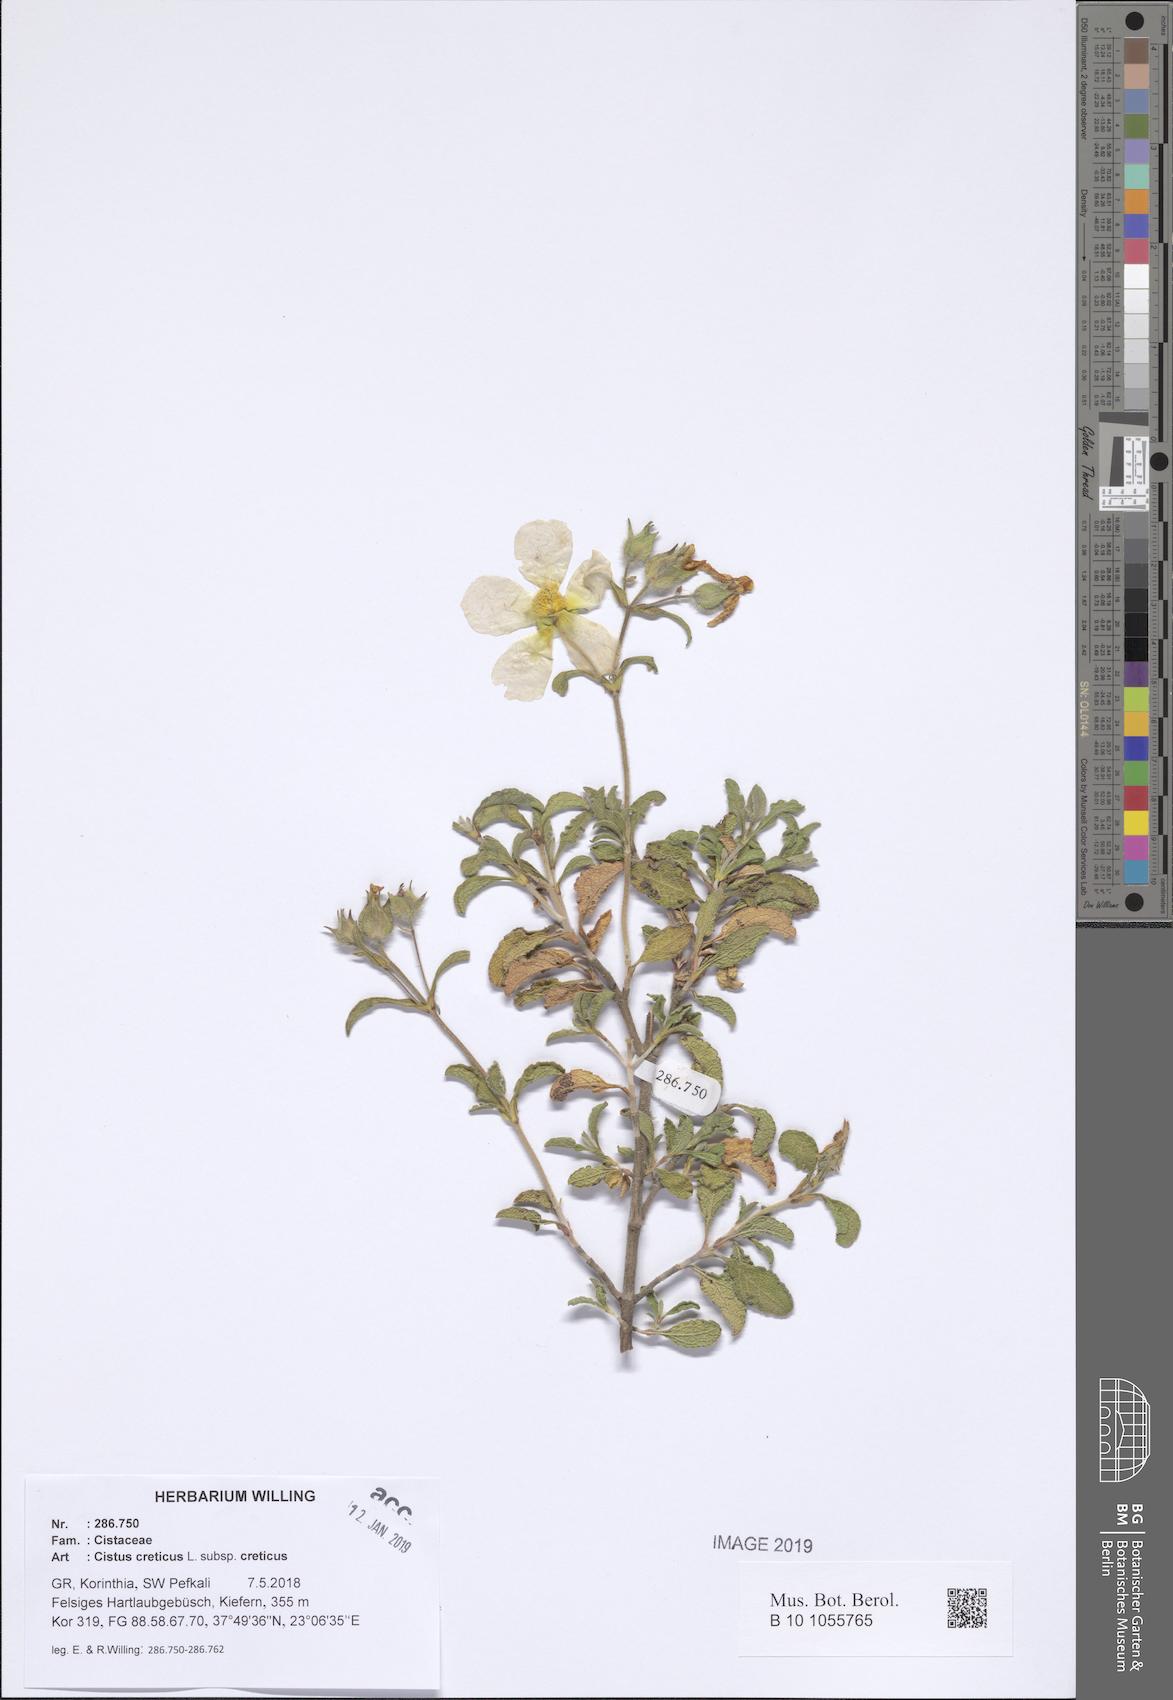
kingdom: Plantae
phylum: Tracheophyta
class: Magnoliopsida
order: Malvales
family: Cistaceae
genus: Cistus
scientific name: Cistus creticus
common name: Cretan rockrose
